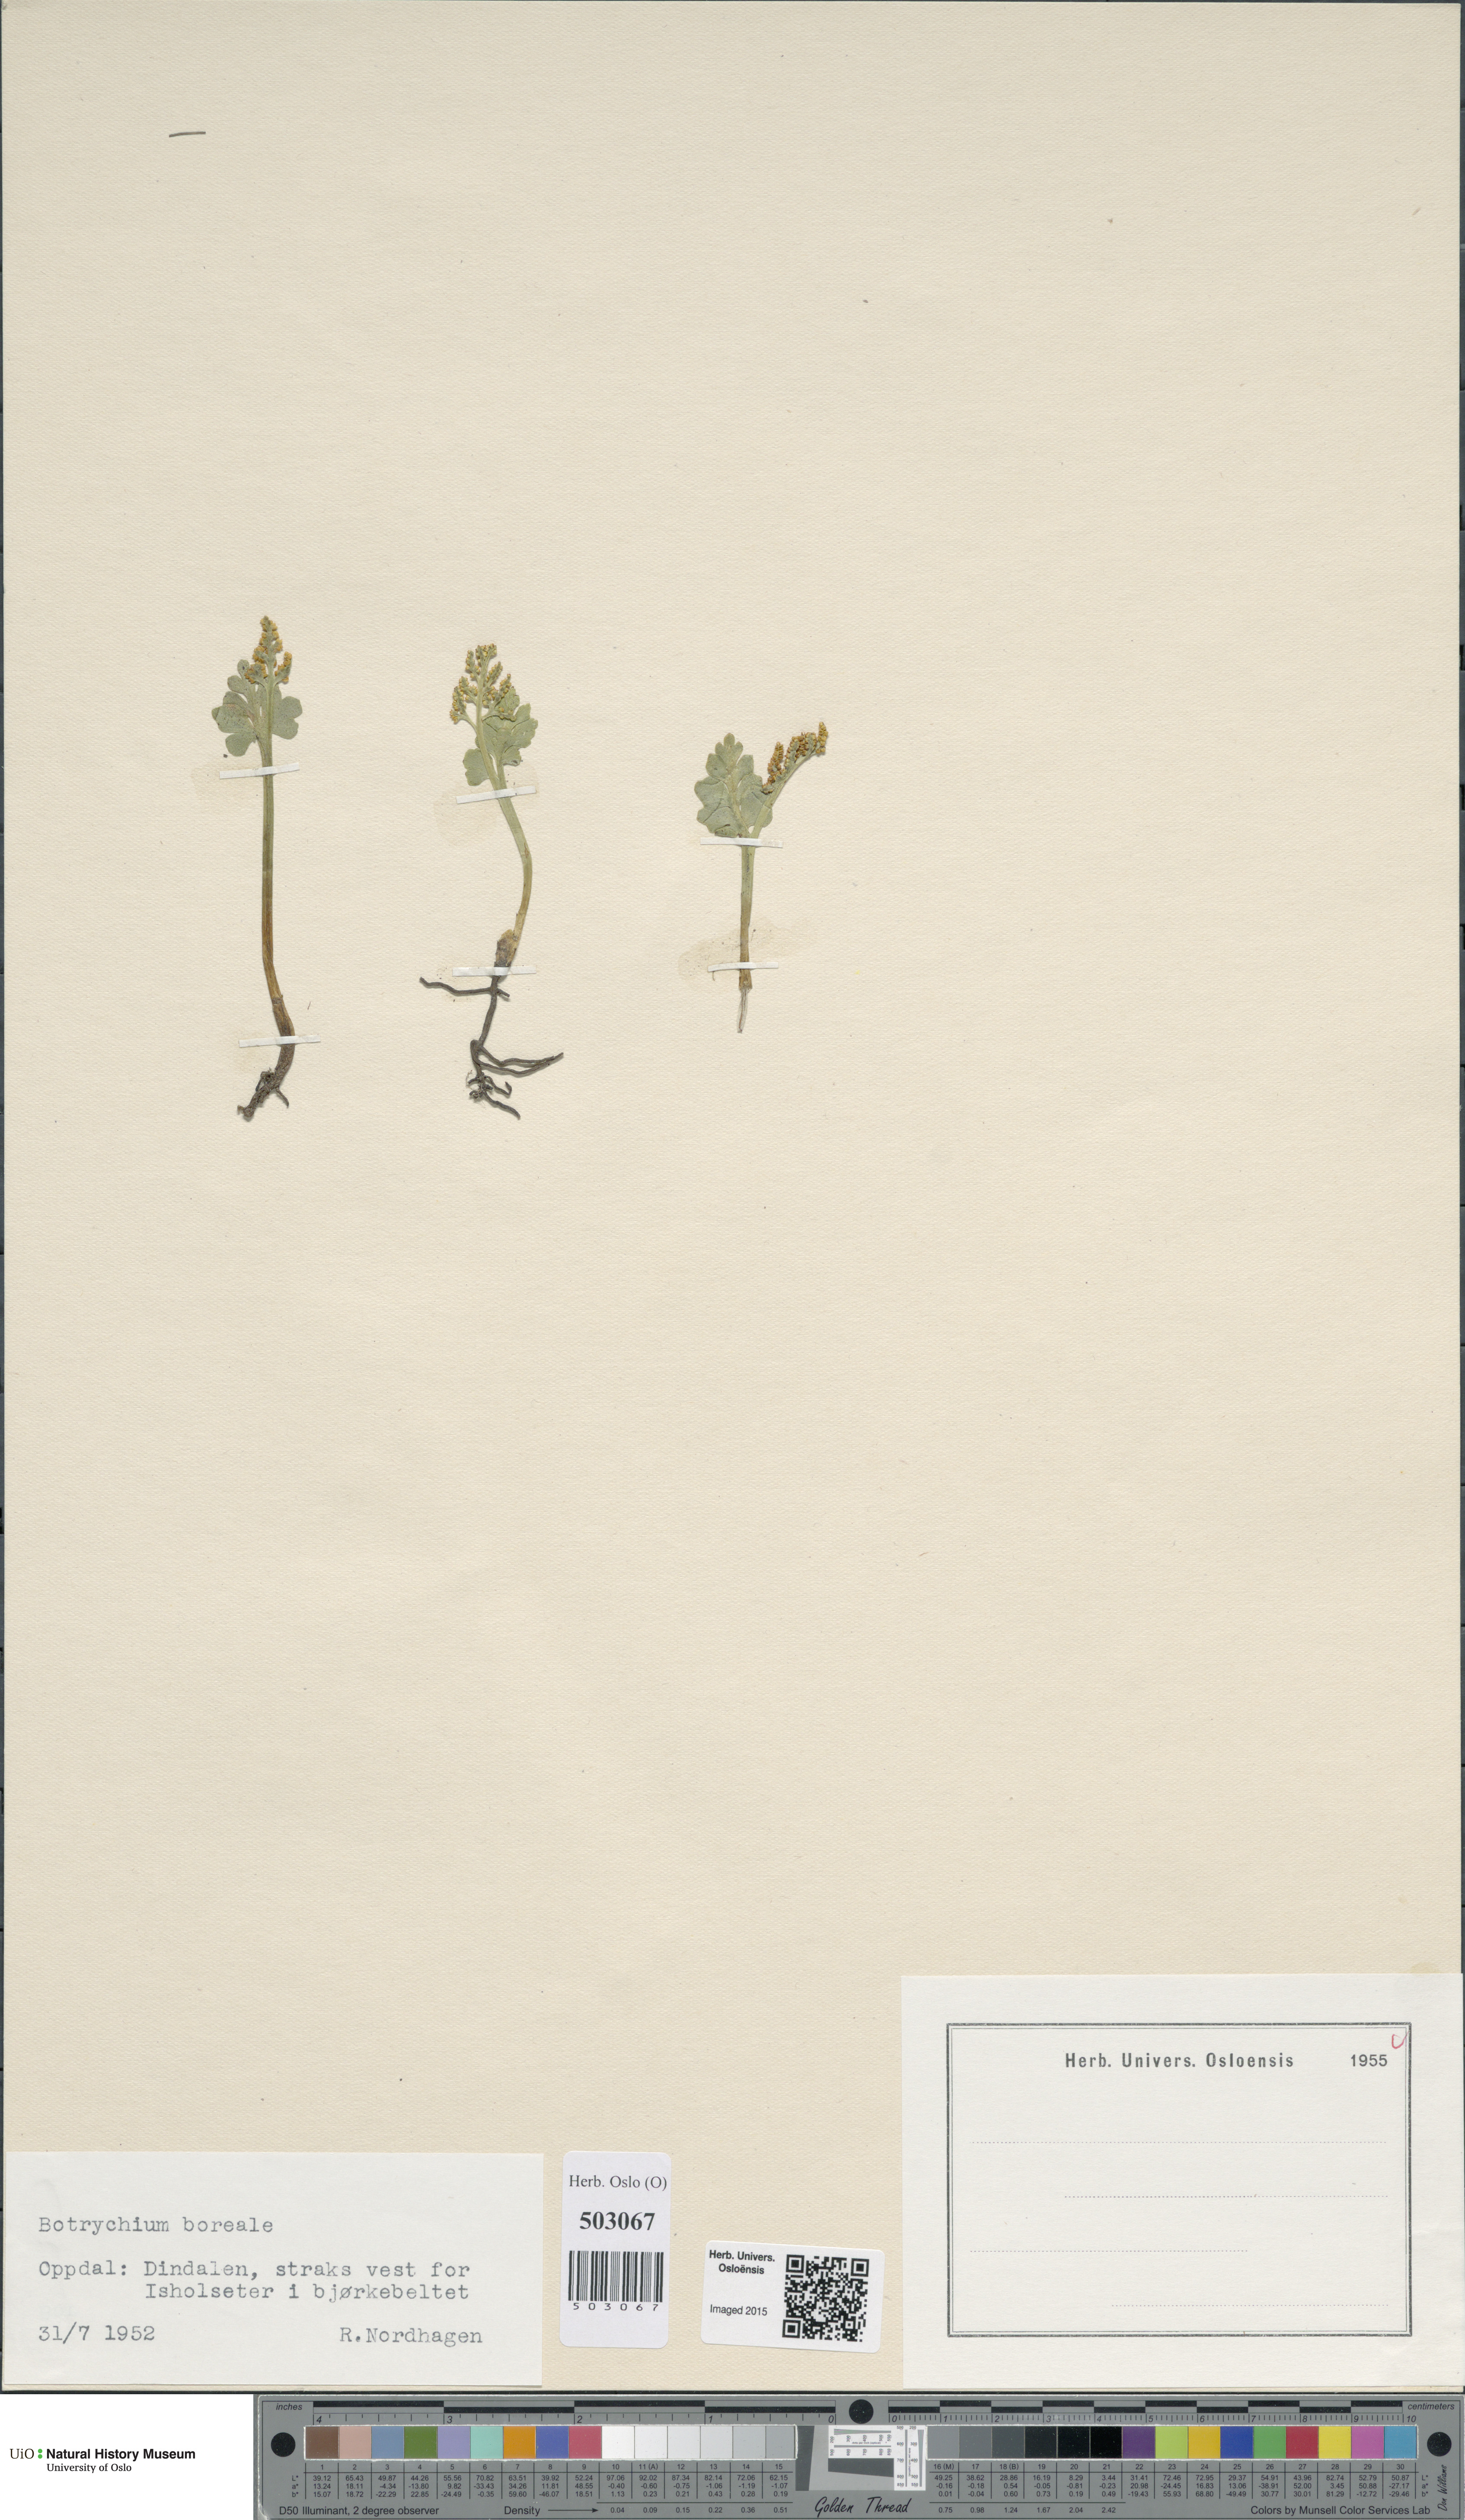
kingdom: Plantae
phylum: Tracheophyta
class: Polypodiopsida
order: Ophioglossales
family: Ophioglossaceae
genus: Botrychium
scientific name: Botrychium boreale
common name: Boreal moonwort
